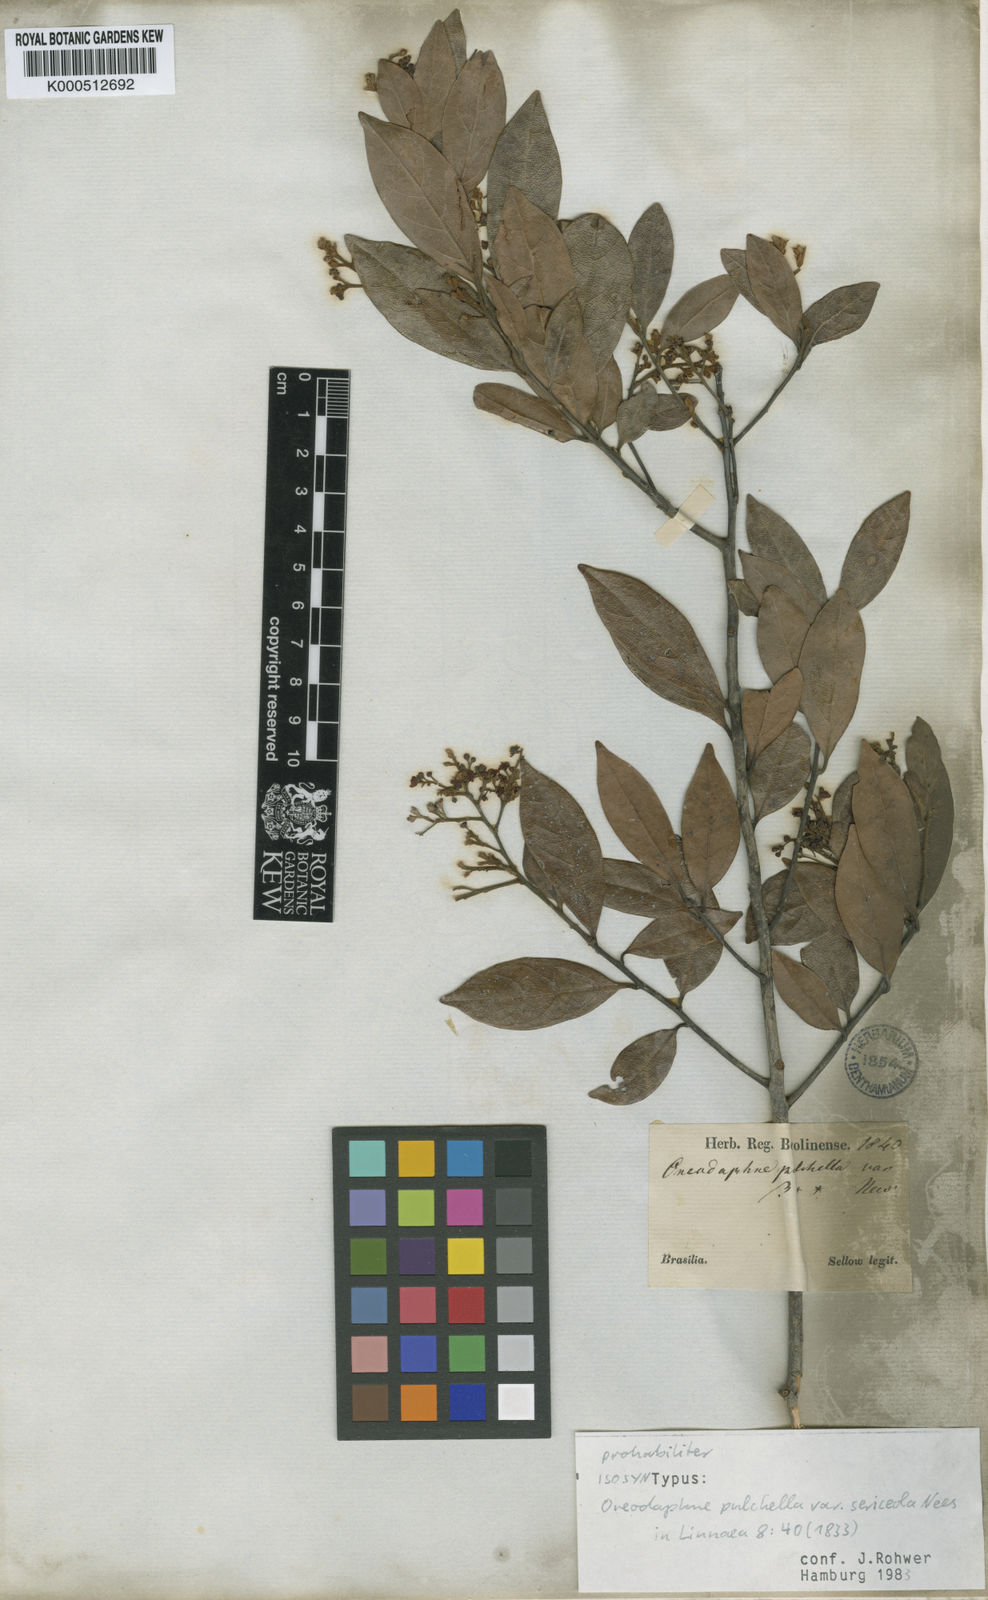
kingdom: Plantae
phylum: Tracheophyta
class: Magnoliopsida
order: Laurales
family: Lauraceae
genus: Mespilodaphne
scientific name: Mespilodaphne pulchella
